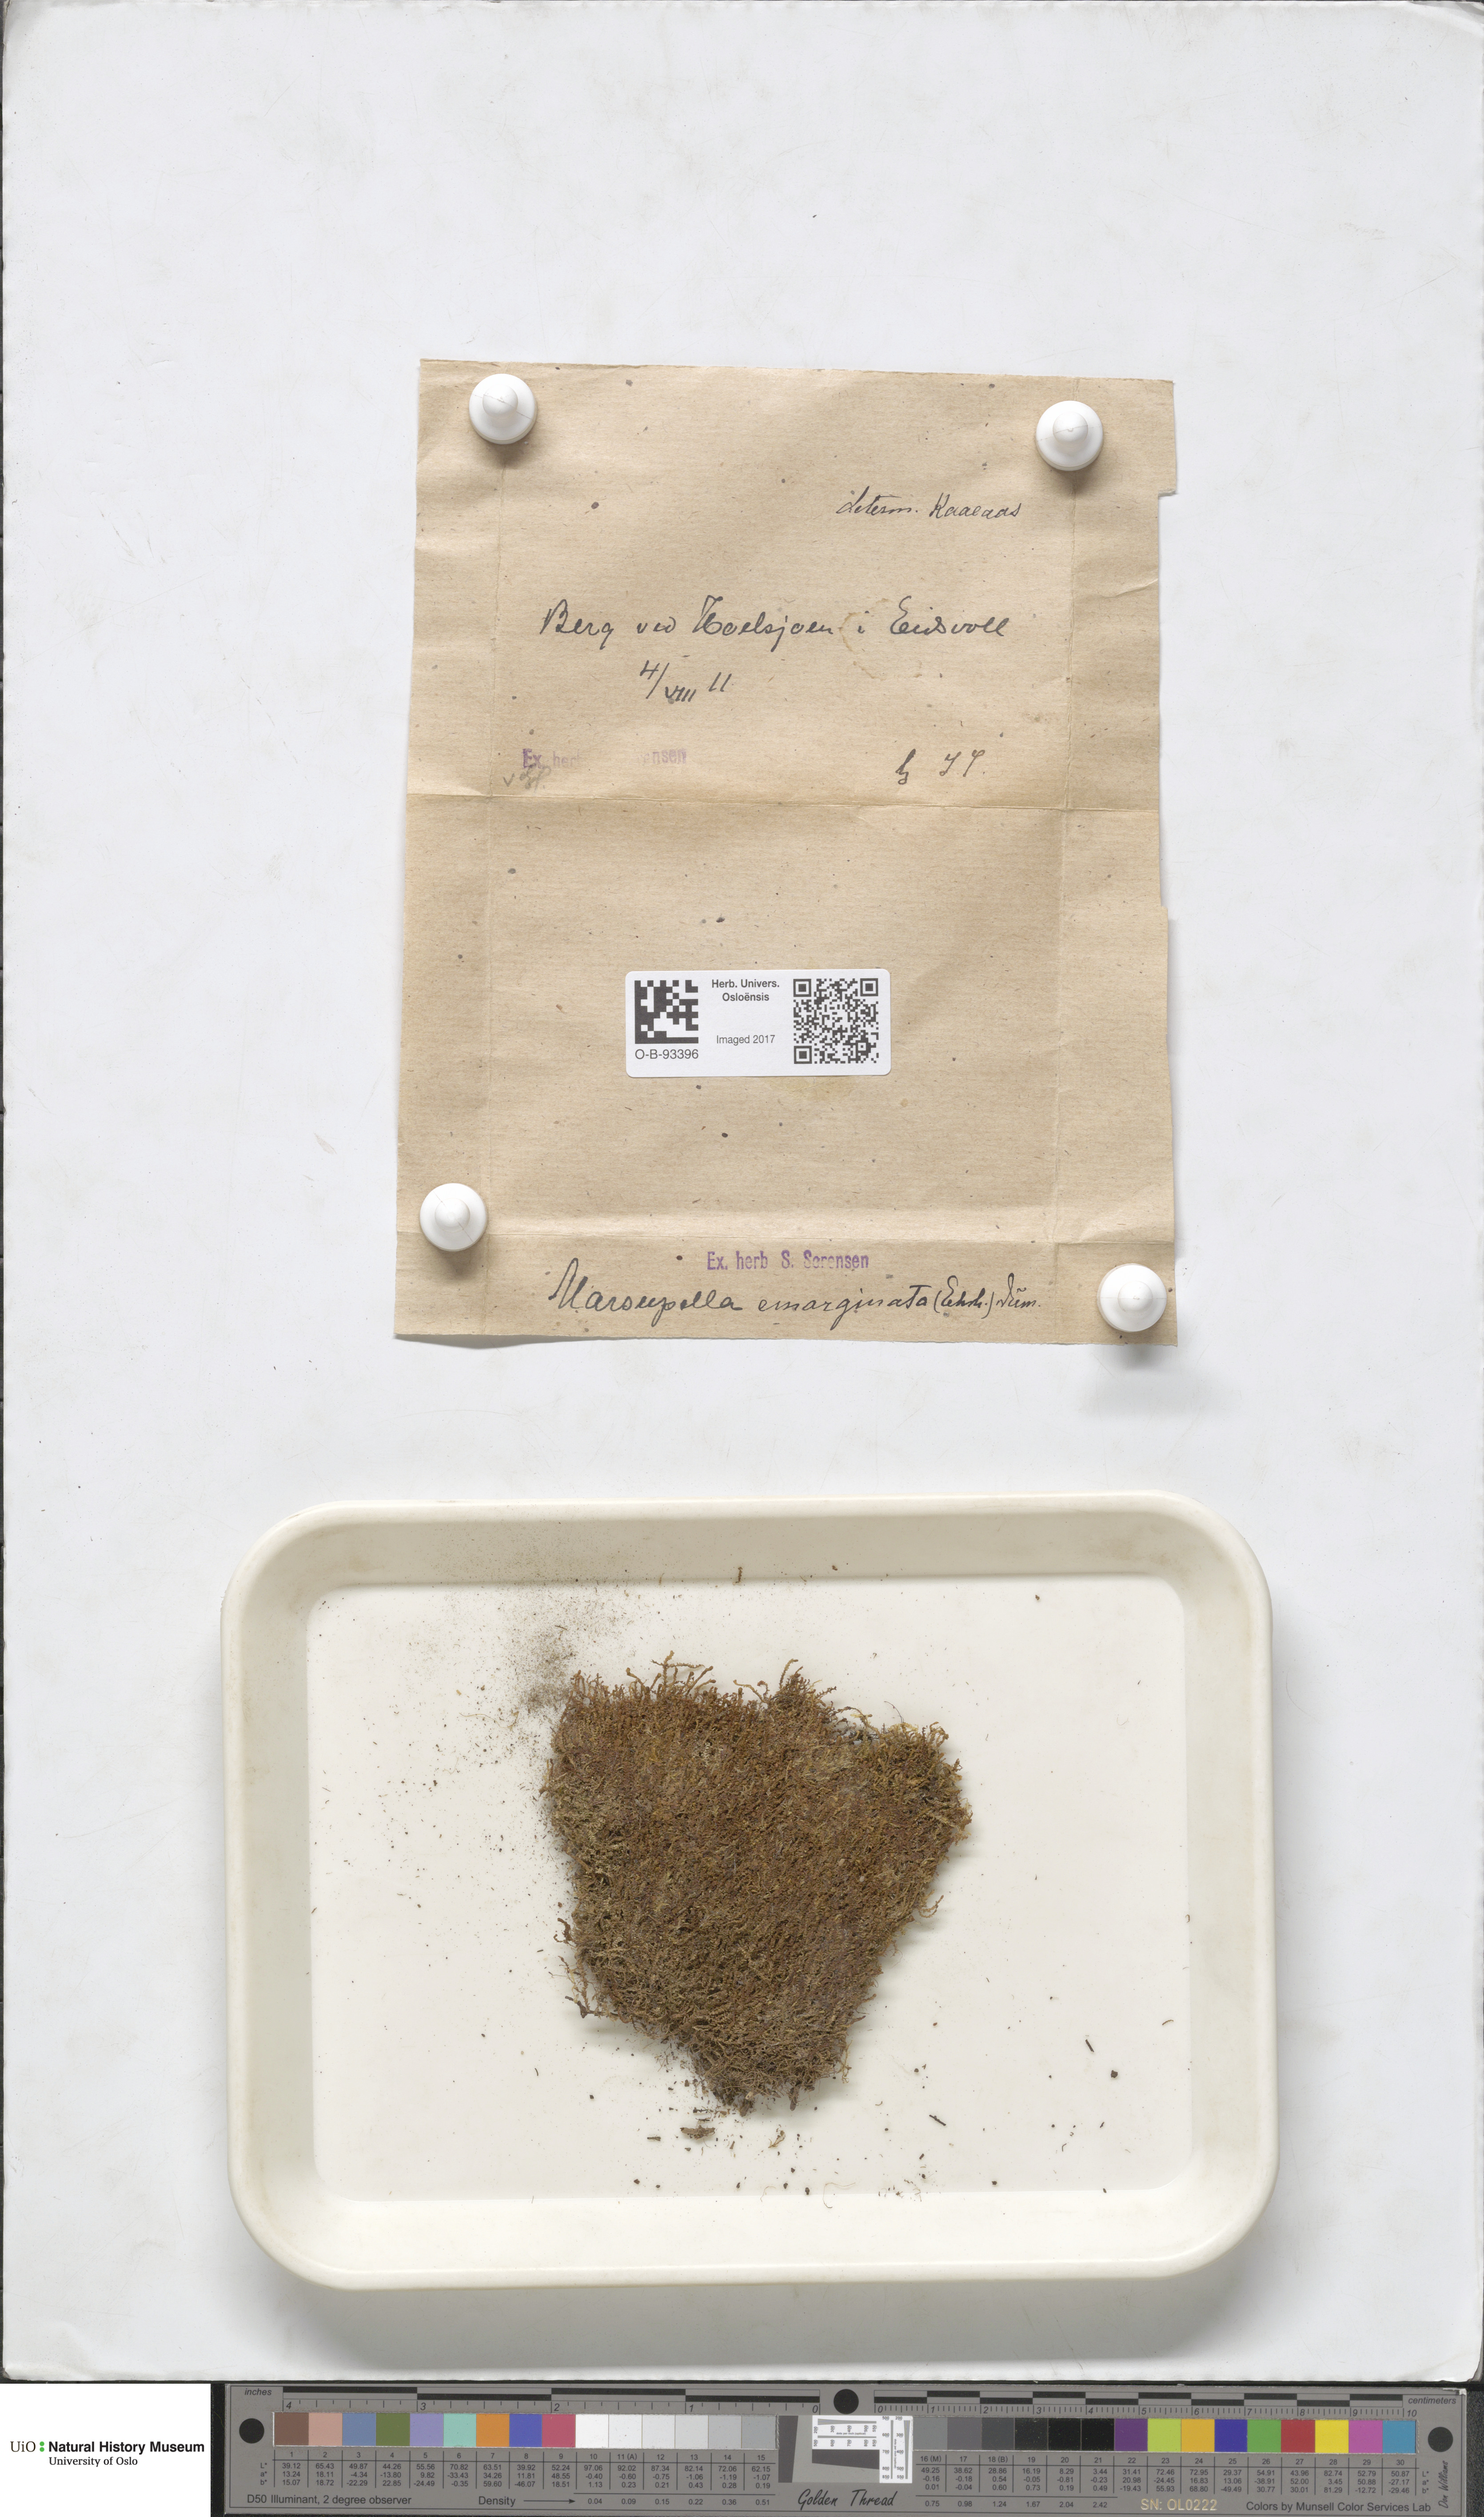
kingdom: Plantae
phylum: Marchantiophyta
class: Jungermanniopsida
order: Jungermanniales
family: Gymnomitriaceae
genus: Gymnomitrion
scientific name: Gymnomitrion brevissimum
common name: Snow rustwort
